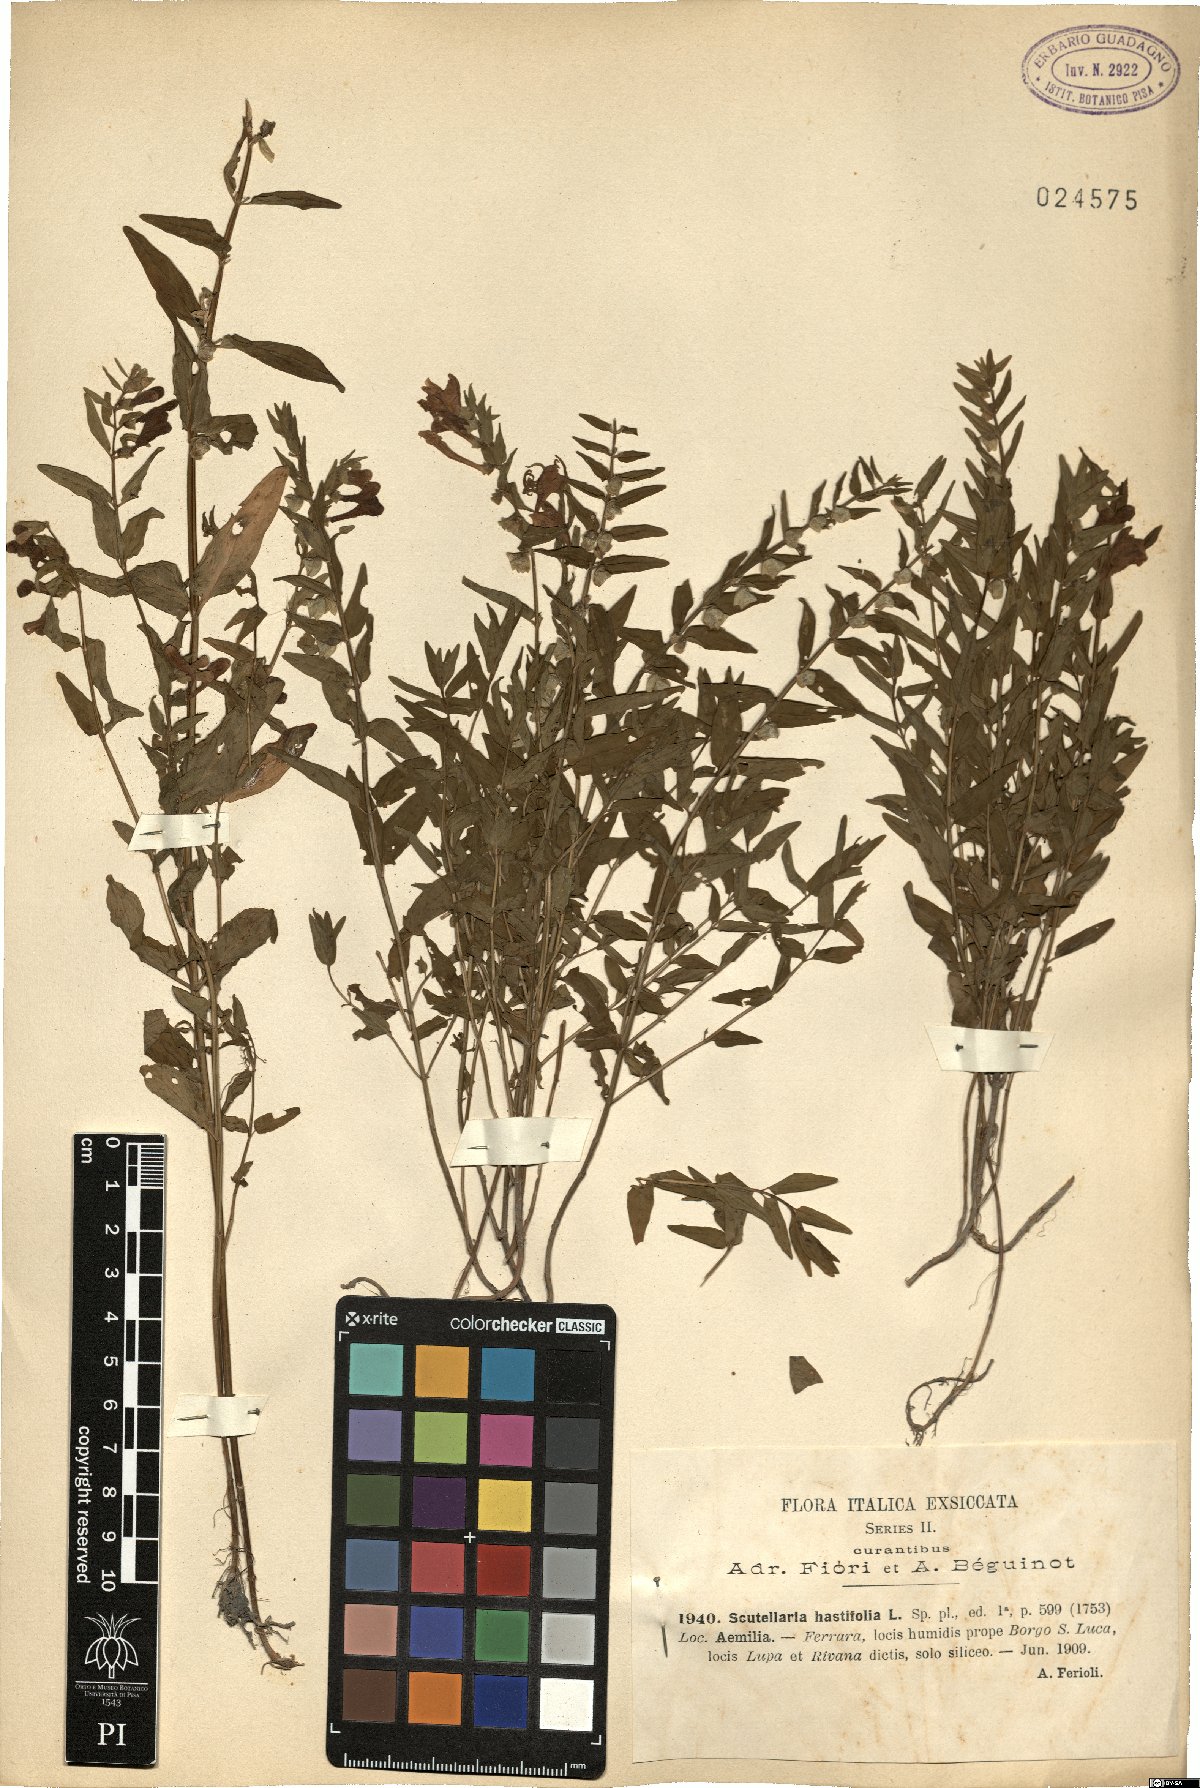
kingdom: Plantae
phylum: Tracheophyta
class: Magnoliopsida
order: Lamiales
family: Lamiaceae
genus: Scutellaria
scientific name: Scutellaria hastifolia
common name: Norfolk skullcap
